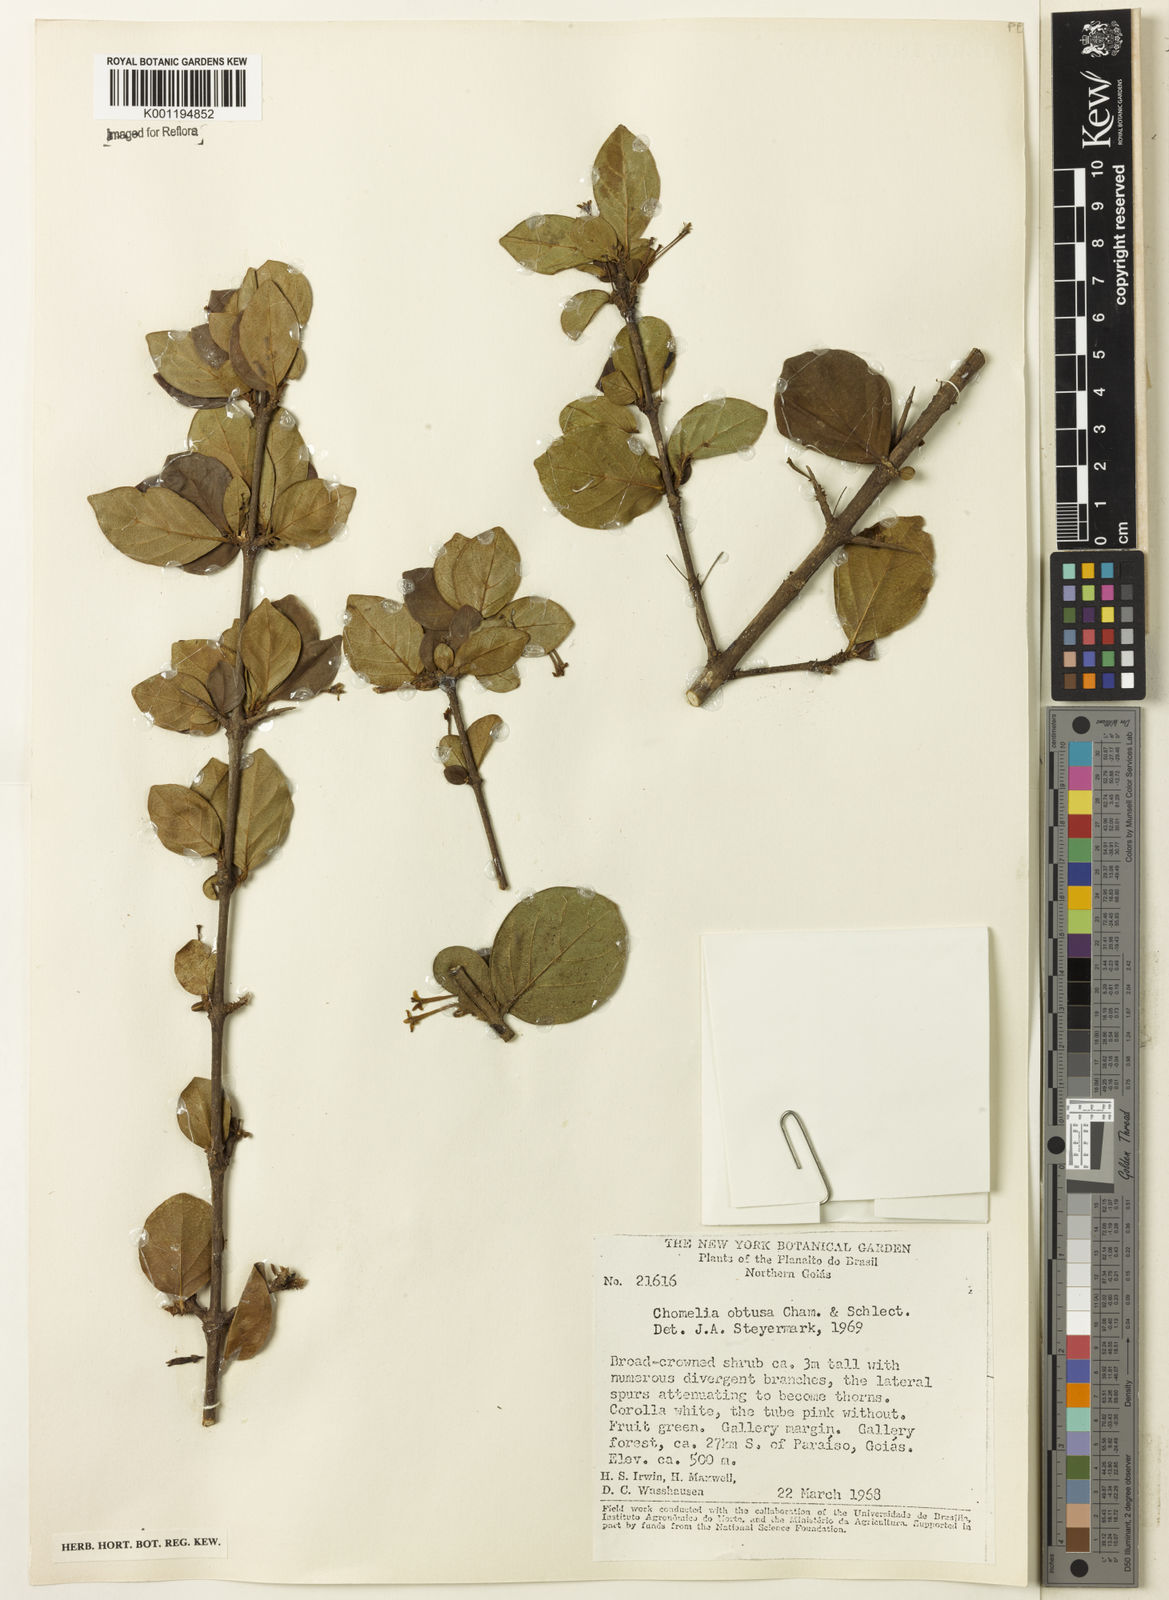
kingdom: Plantae
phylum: Tracheophyta
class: Magnoliopsida
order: Gentianales
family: Rubiaceae
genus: Chomelia
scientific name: Chomelia obtusa
